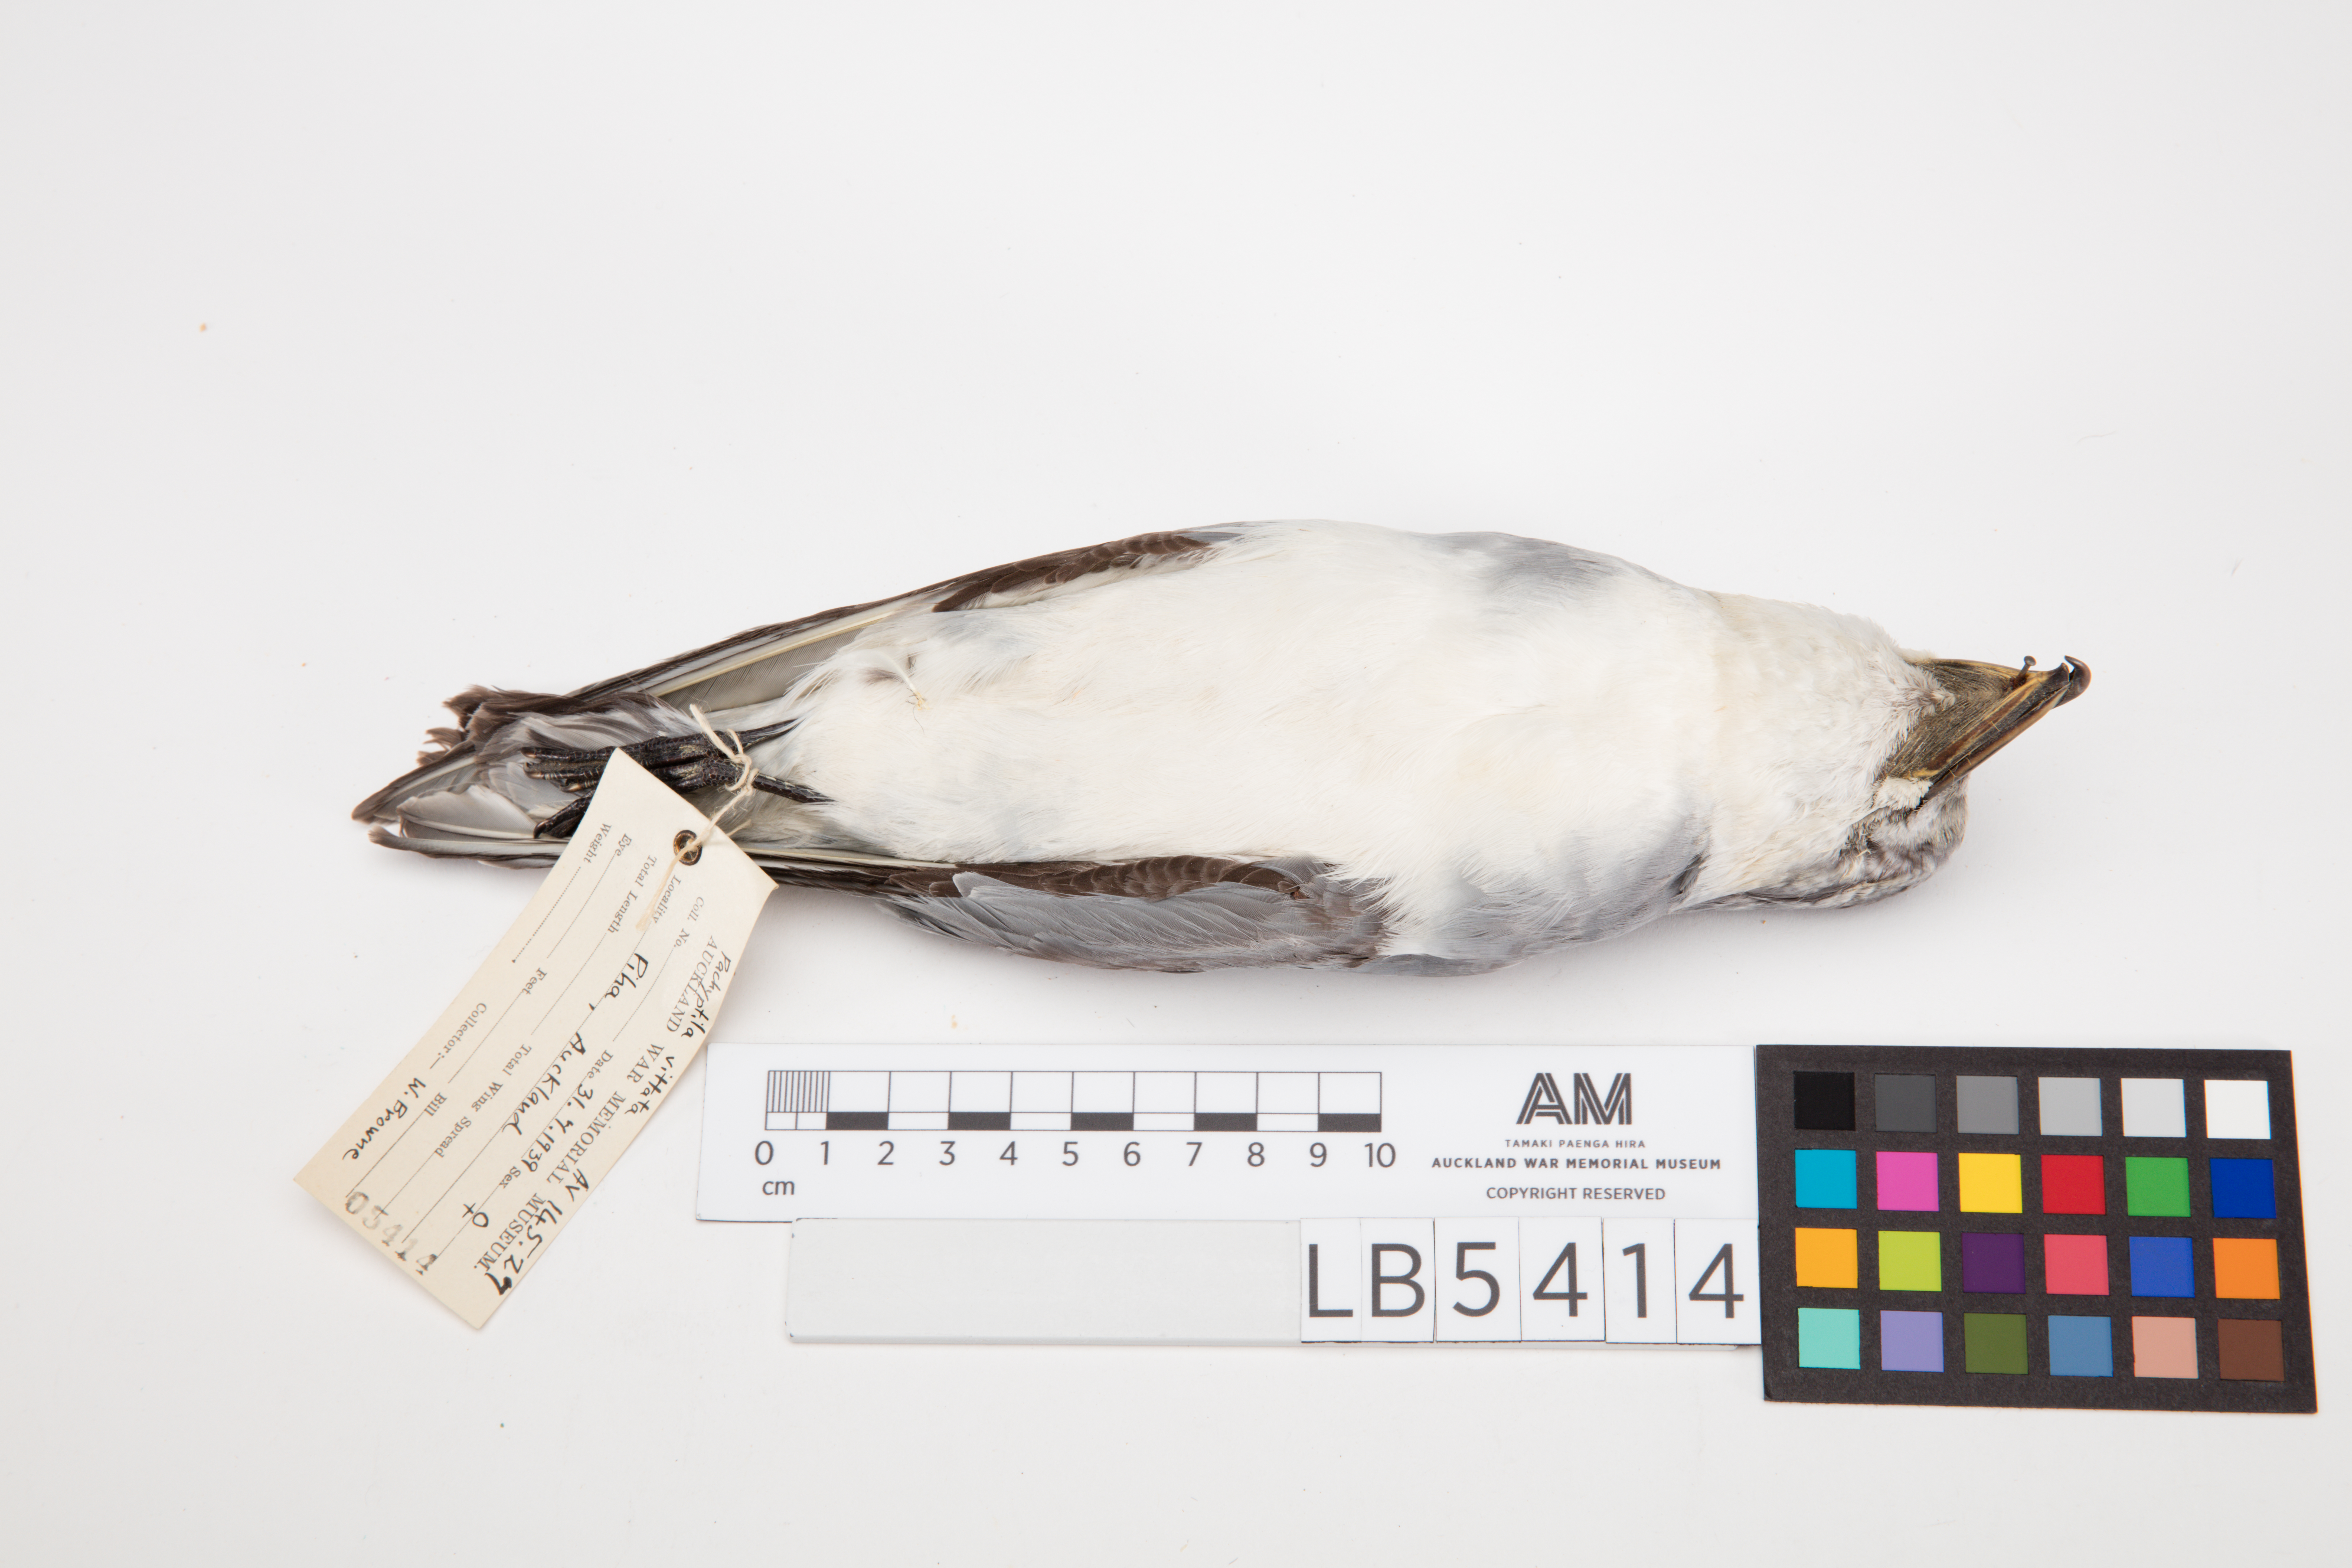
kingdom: Animalia
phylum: Chordata
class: Aves
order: Procellariiformes
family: Procellariidae
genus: Pachyptila
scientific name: Pachyptila vittata
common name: Broad-billed prion
